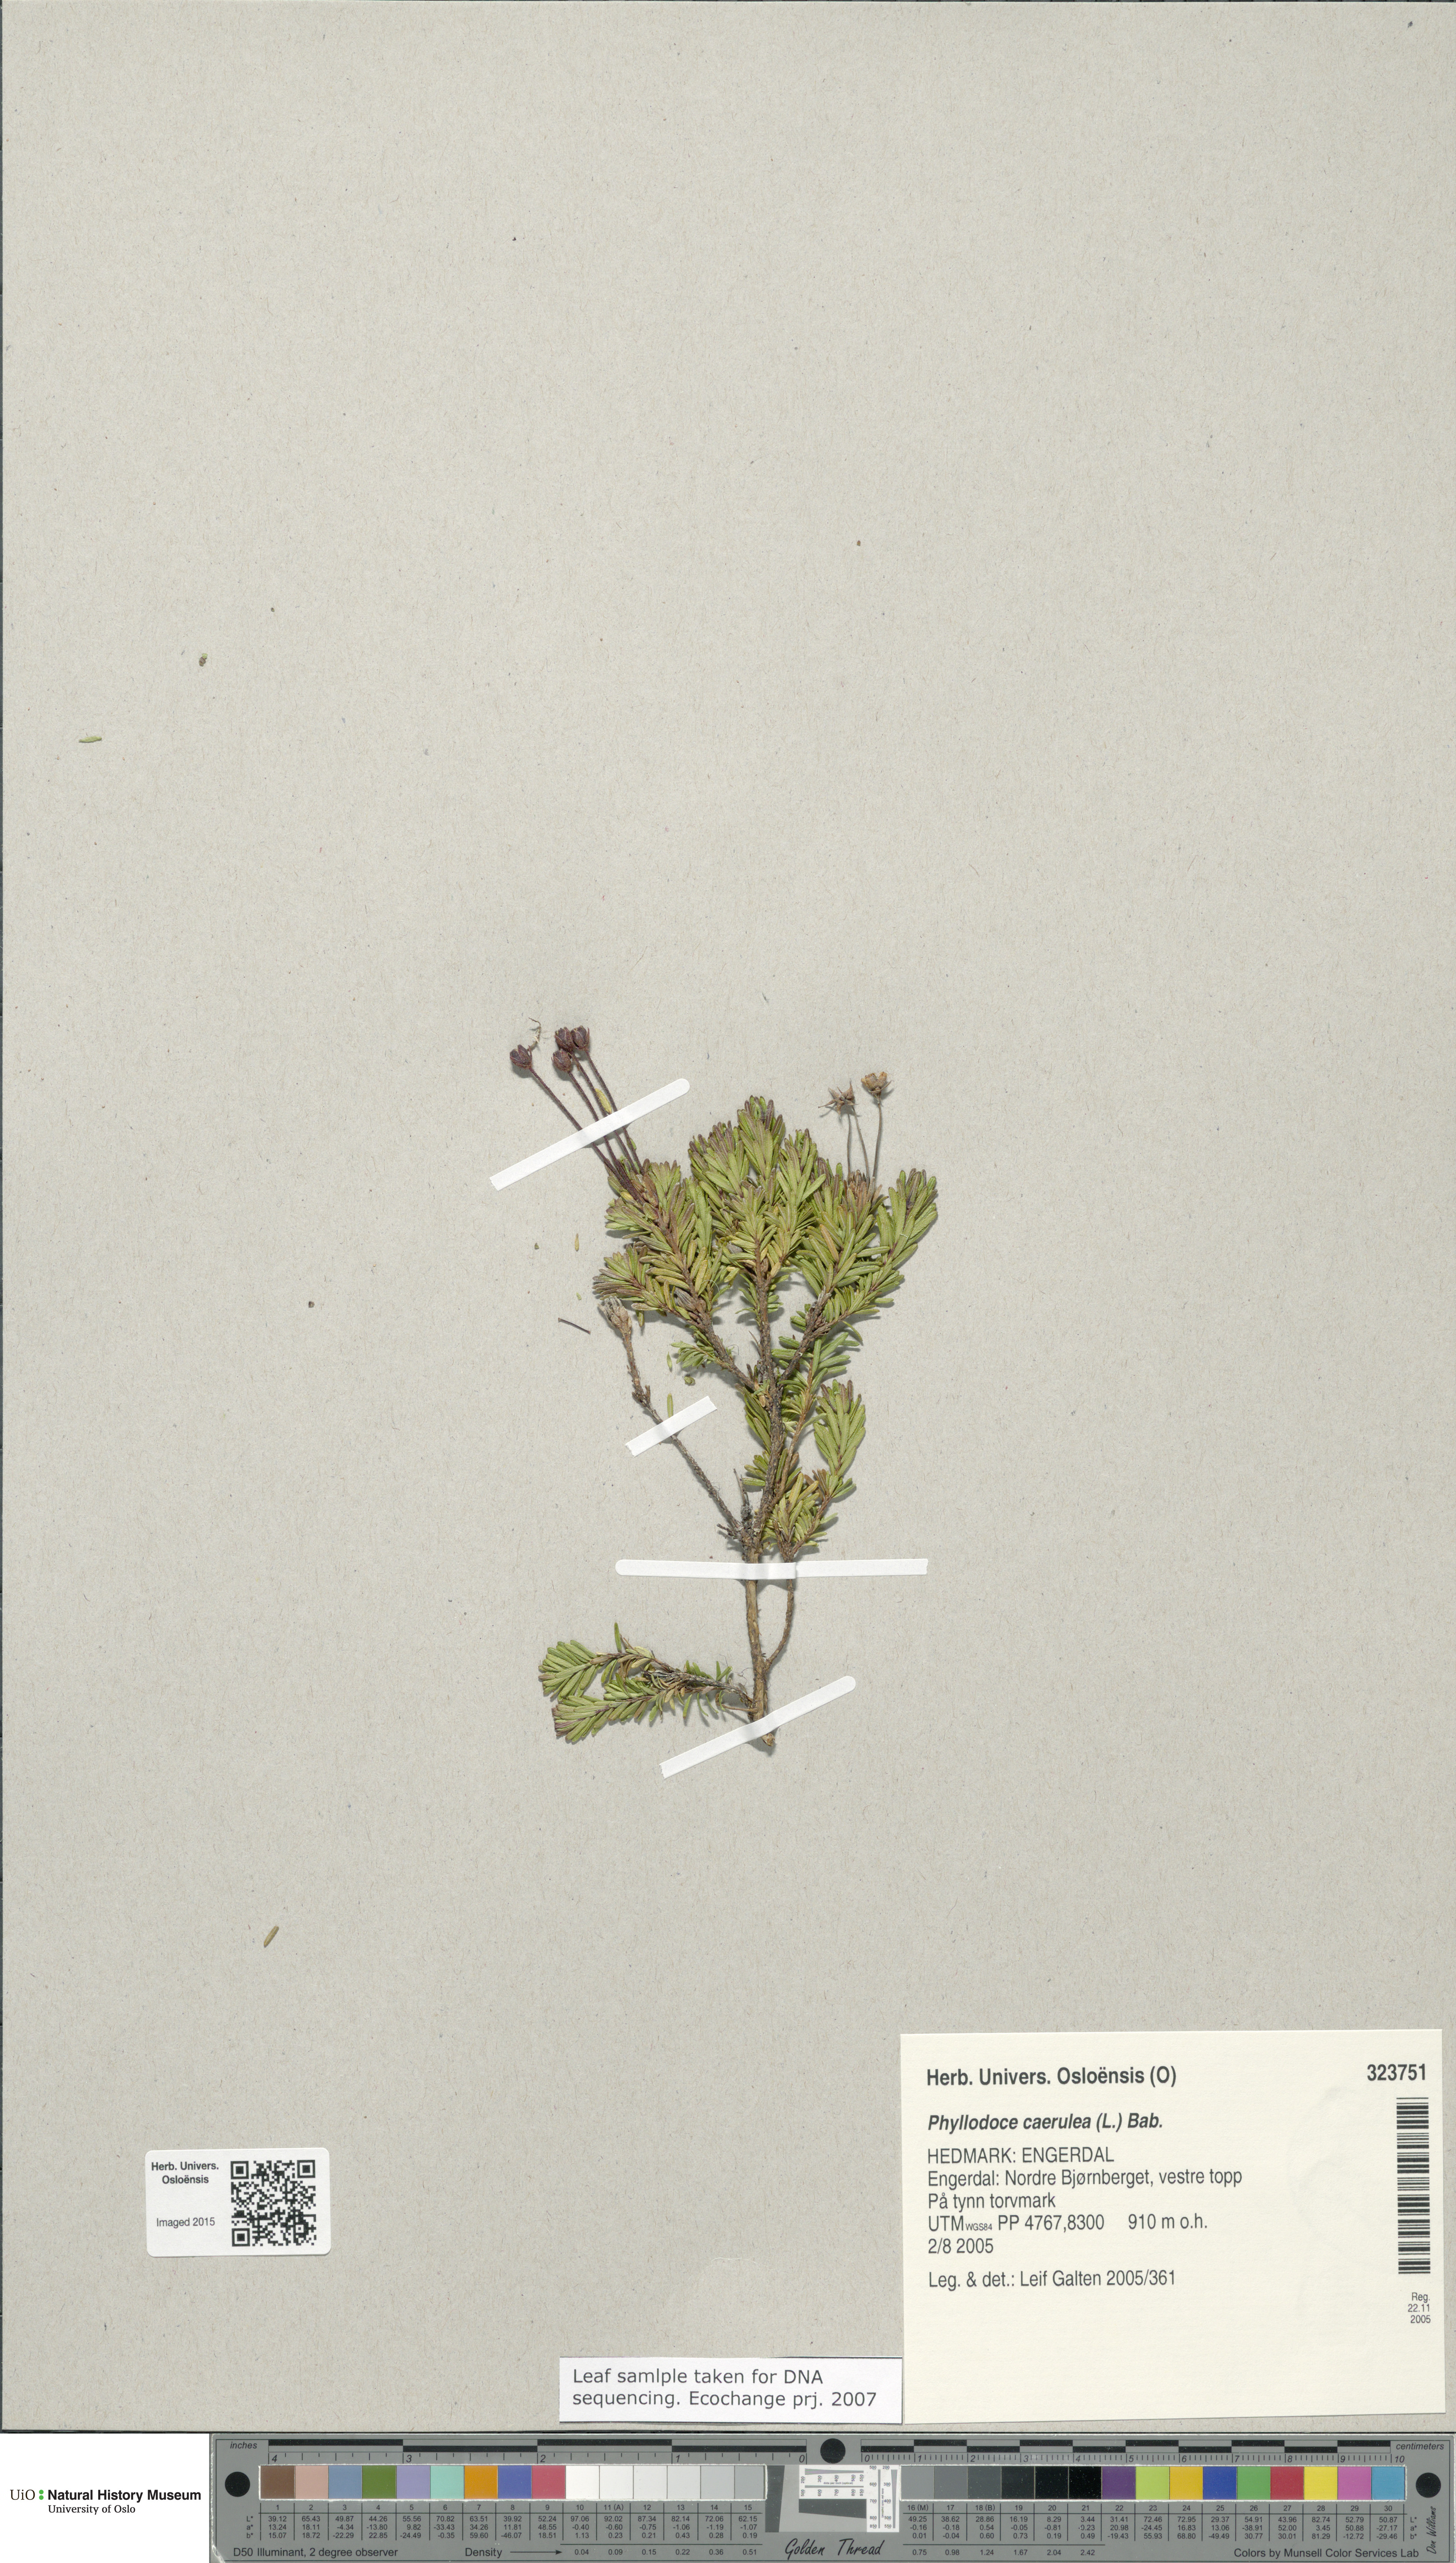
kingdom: Plantae
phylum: Tracheophyta
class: Magnoliopsida
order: Ericales
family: Ericaceae
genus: Phyllodoce
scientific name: Phyllodoce caerulea
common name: Blue heath
